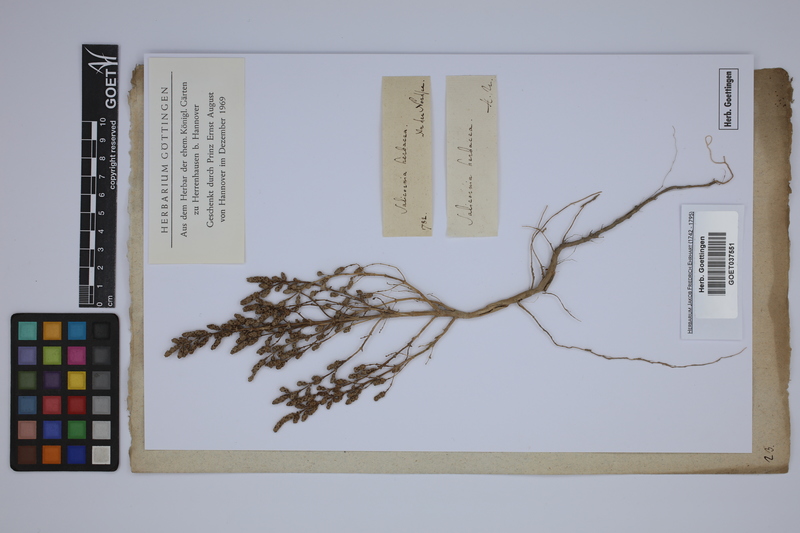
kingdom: Plantae
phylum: Tracheophyta
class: Magnoliopsida
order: Caryophyllales
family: Amaranthaceae
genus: Salicornia
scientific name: Salicornia europaea
